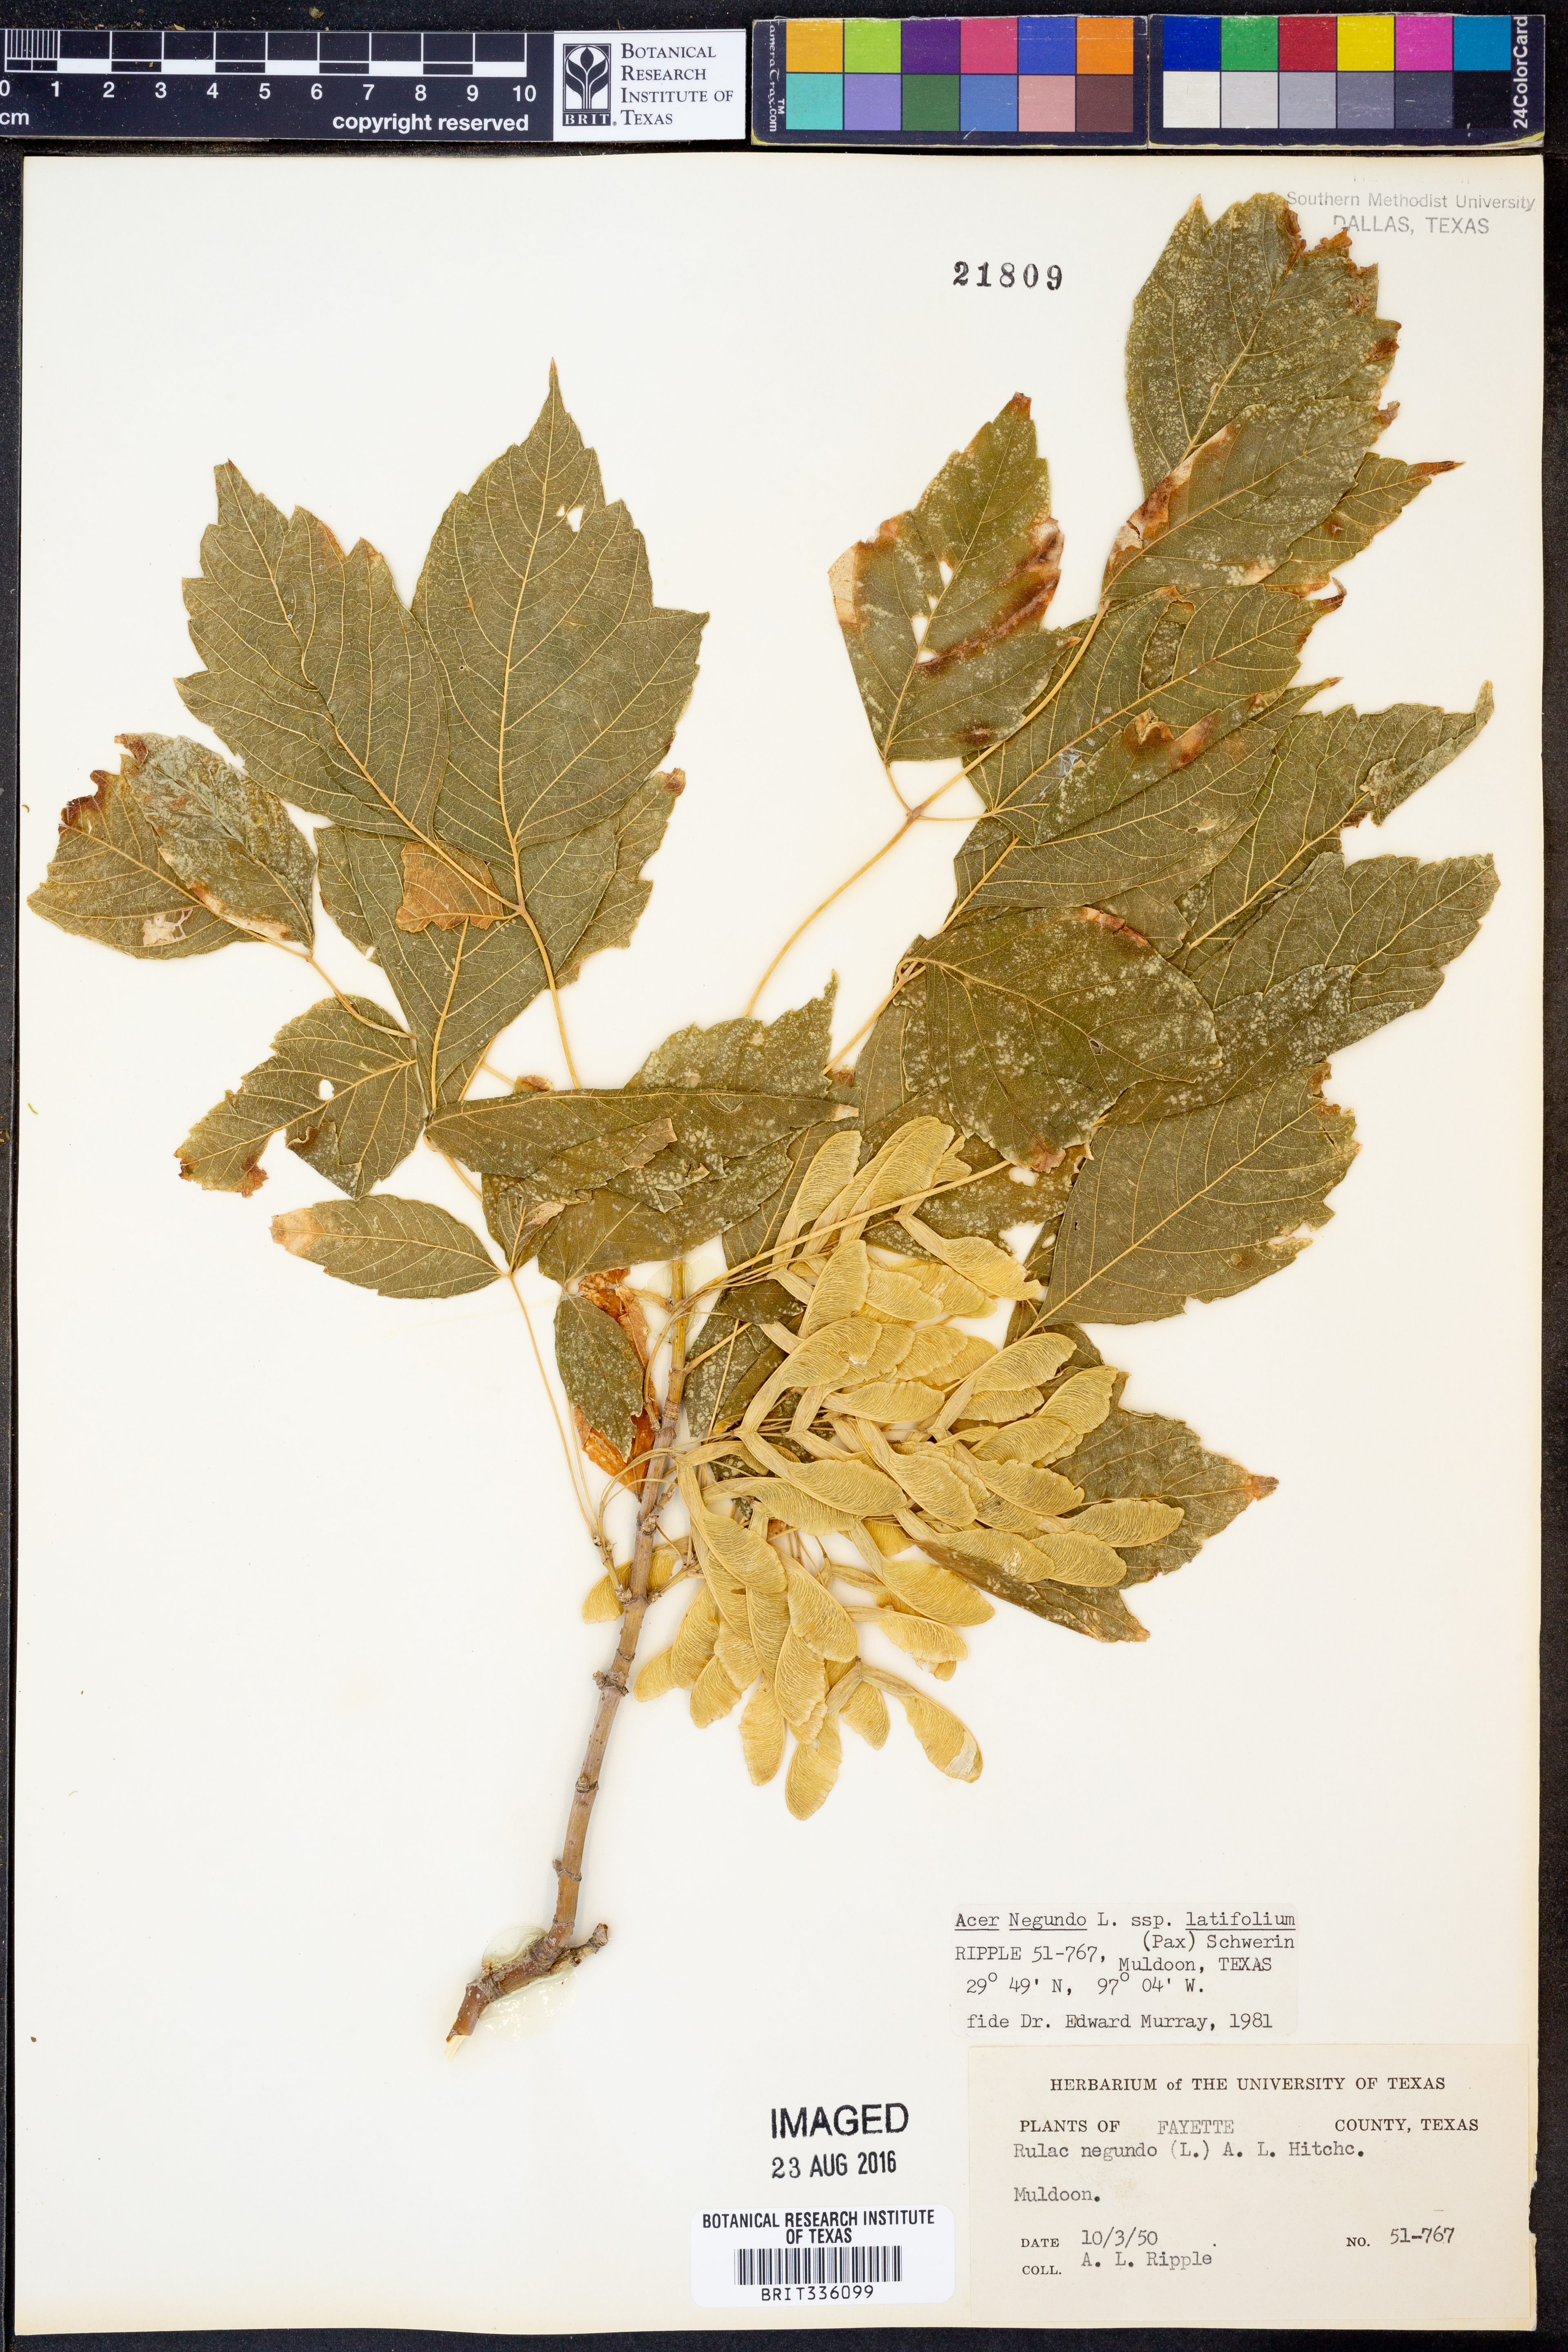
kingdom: Plantae
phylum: Tracheophyta
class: Magnoliopsida
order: Sapindales
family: Sapindaceae
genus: Acer
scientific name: Acer negundo
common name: Ashleaf maple
